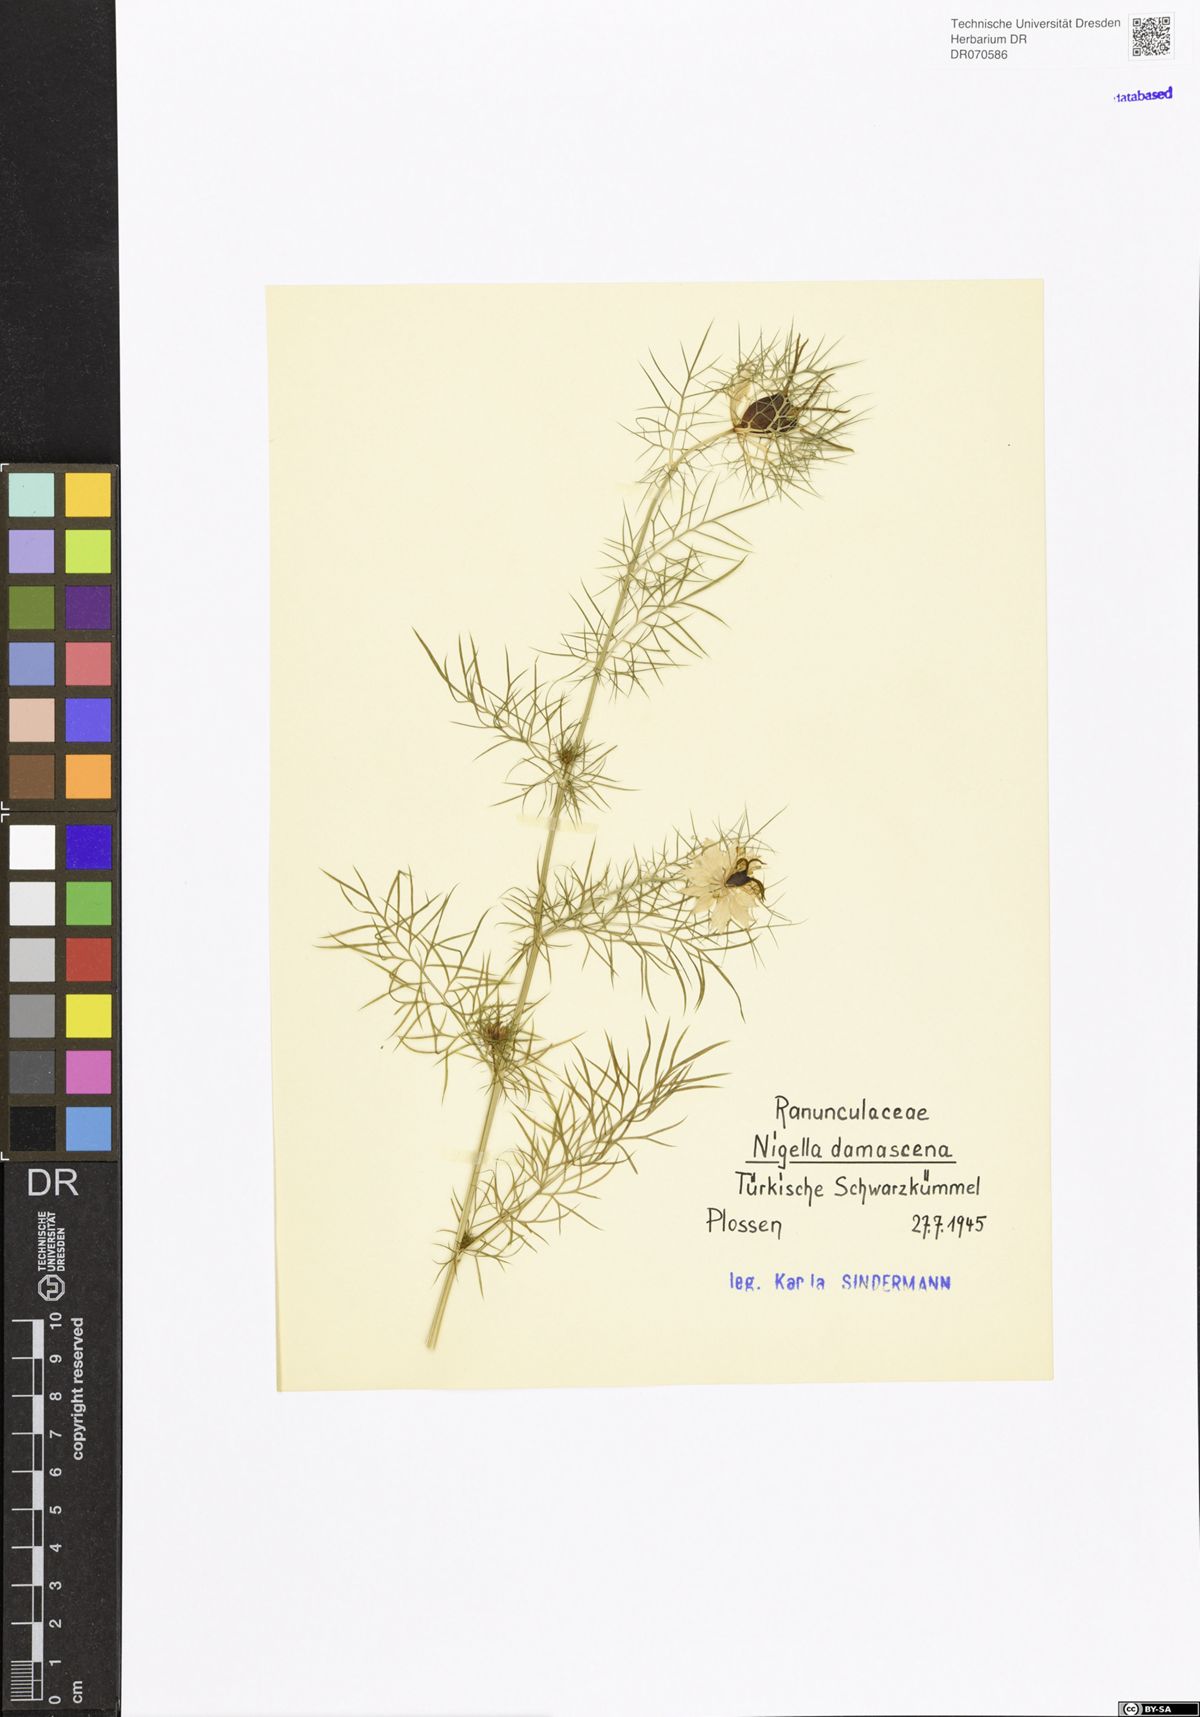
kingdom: Plantae
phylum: Tracheophyta
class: Magnoliopsida
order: Ranunculales
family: Ranunculaceae
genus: Nigella
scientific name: Nigella damascena
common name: Love-in-a-mist
